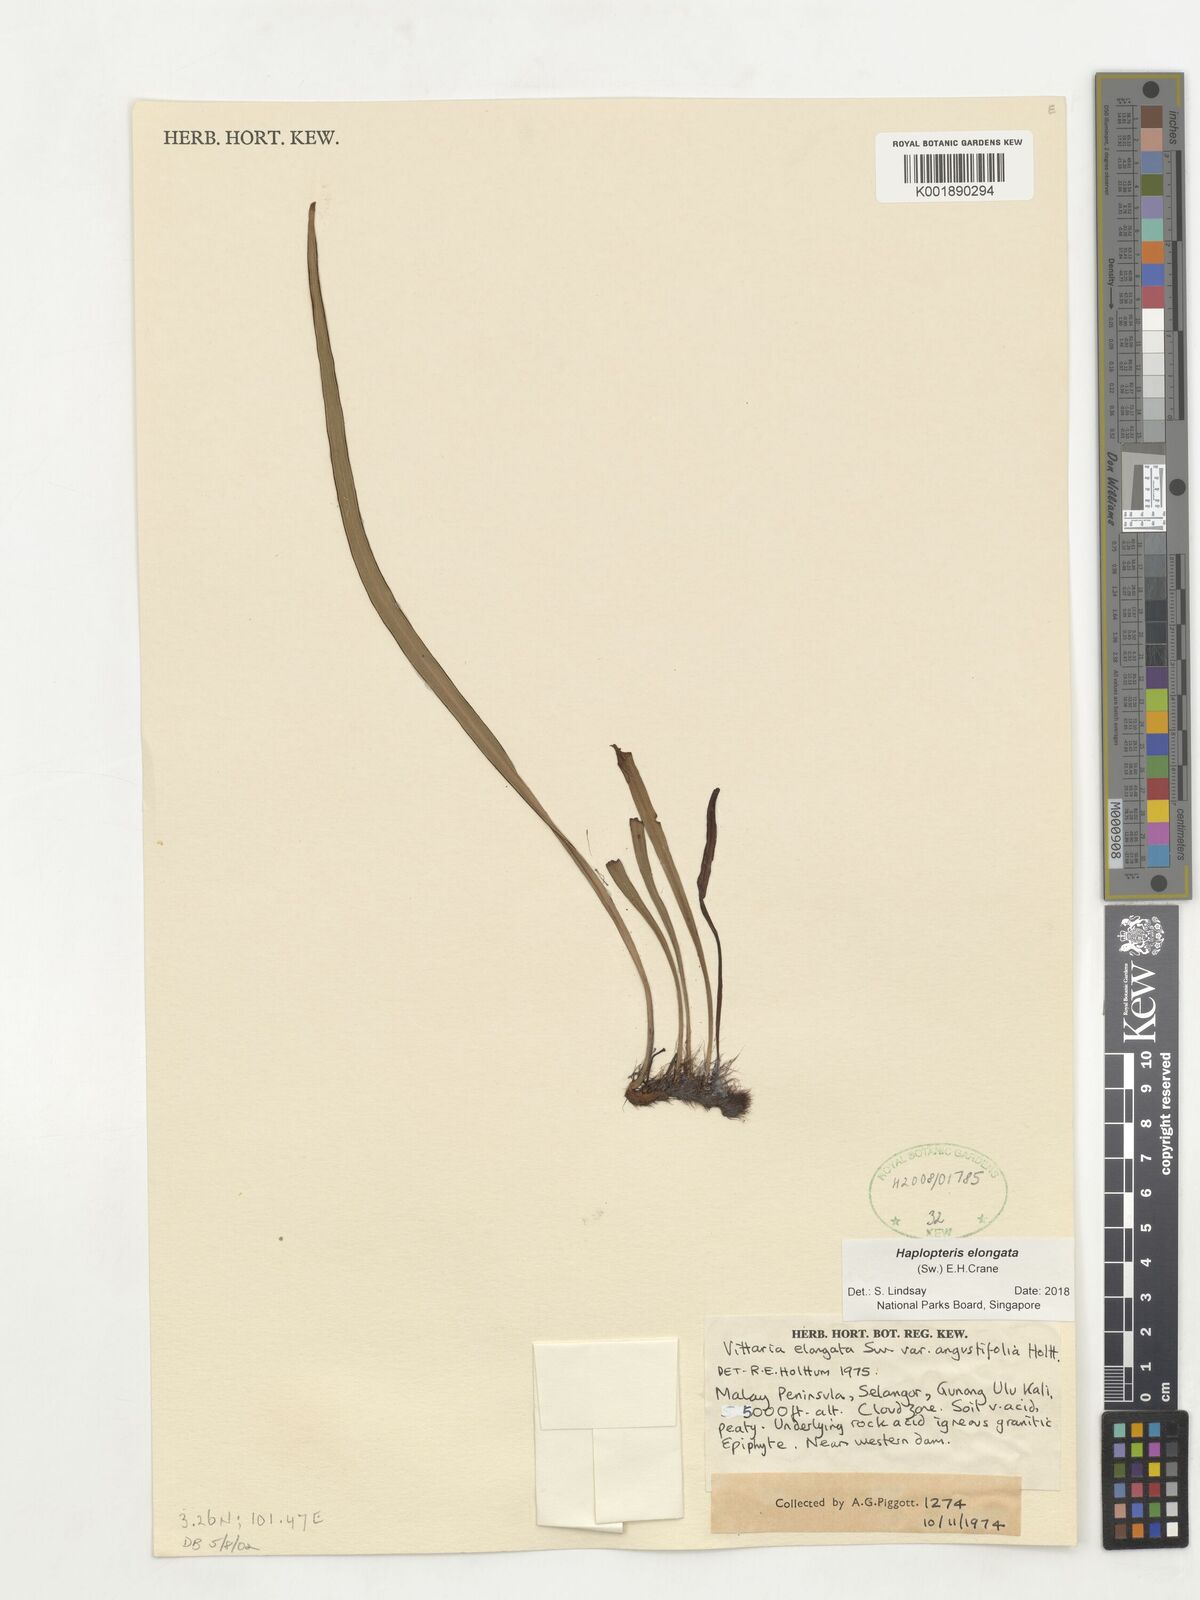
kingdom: Plantae
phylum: Tracheophyta
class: Polypodiopsida
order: Polypodiales
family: Pteridaceae
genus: Haplopteris
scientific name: Haplopteris elongata
